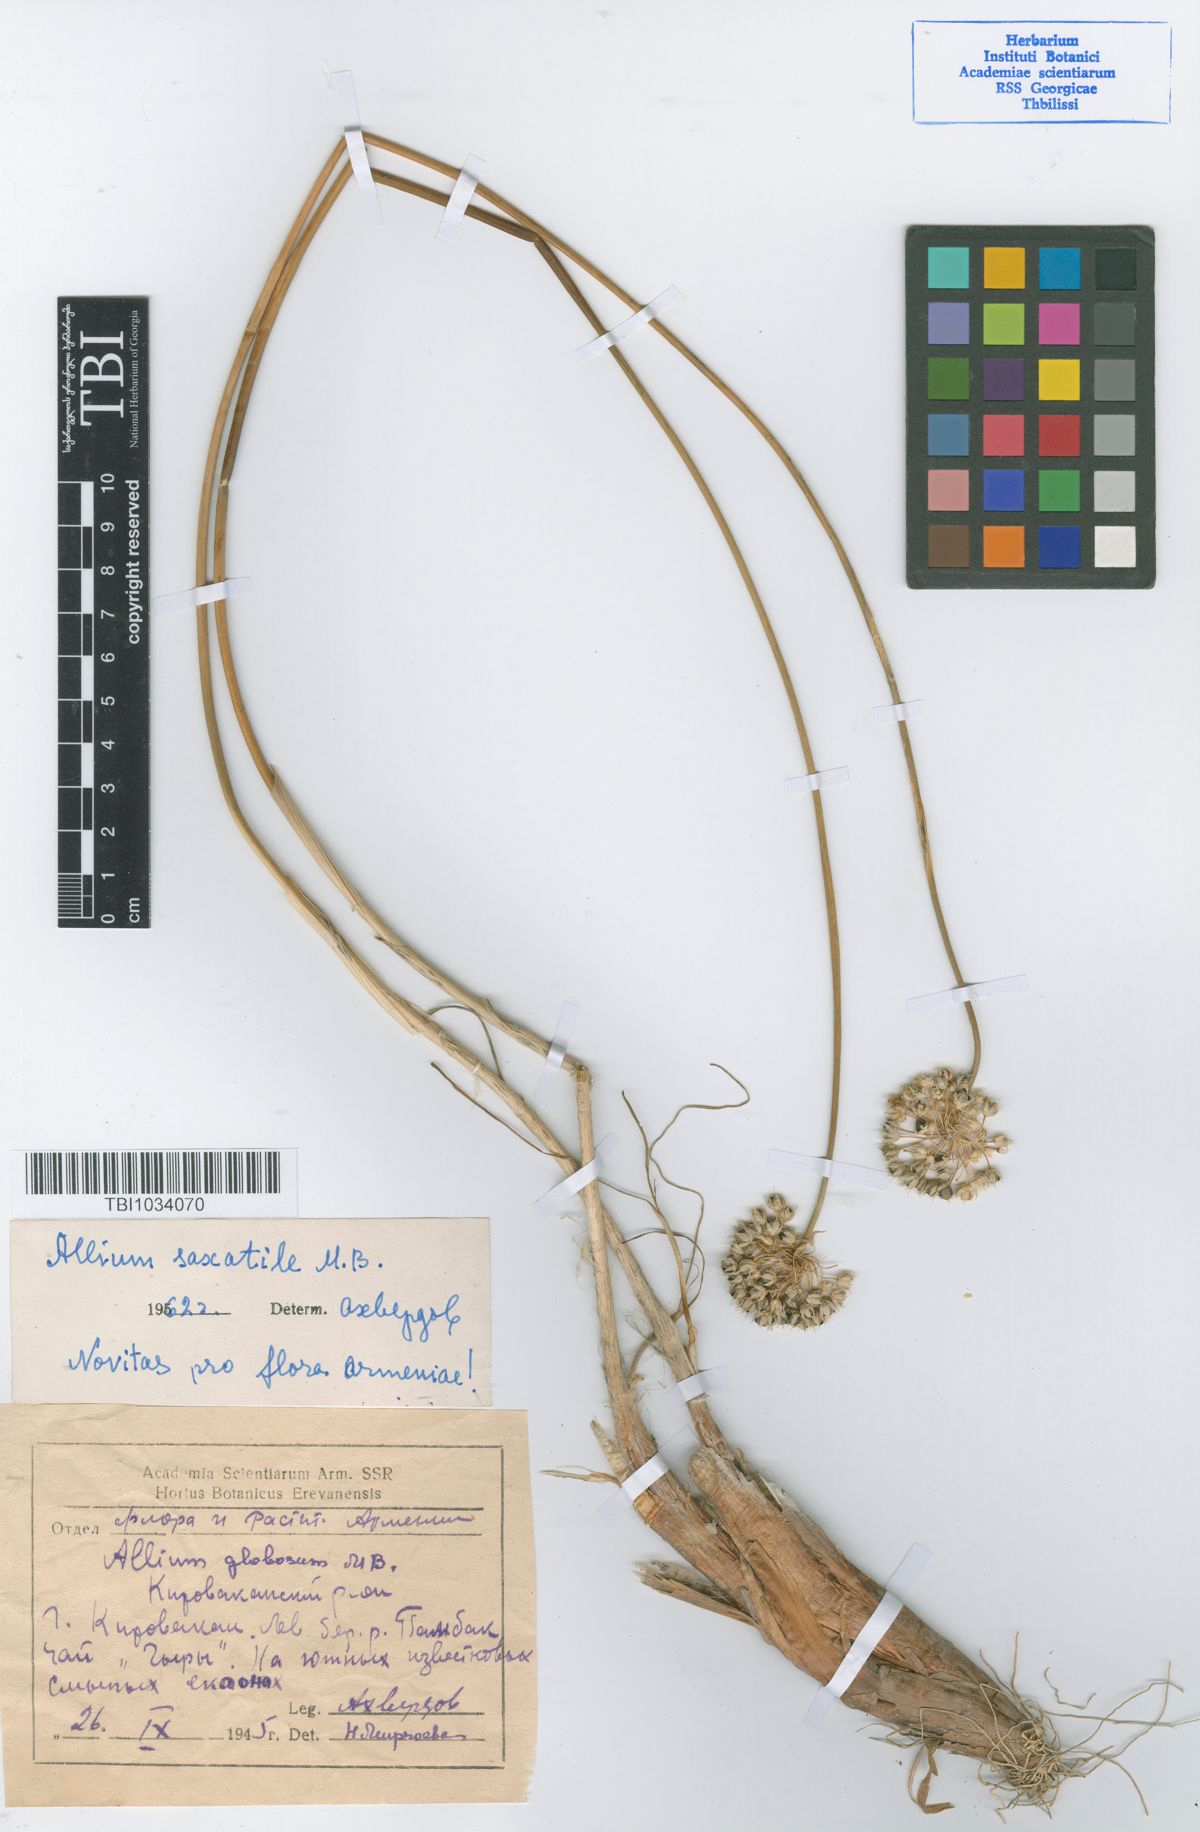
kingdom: Plantae
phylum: Tracheophyta
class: Liliopsida
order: Asparagales
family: Amaryllidaceae
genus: Allium
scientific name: Allium saxatile
